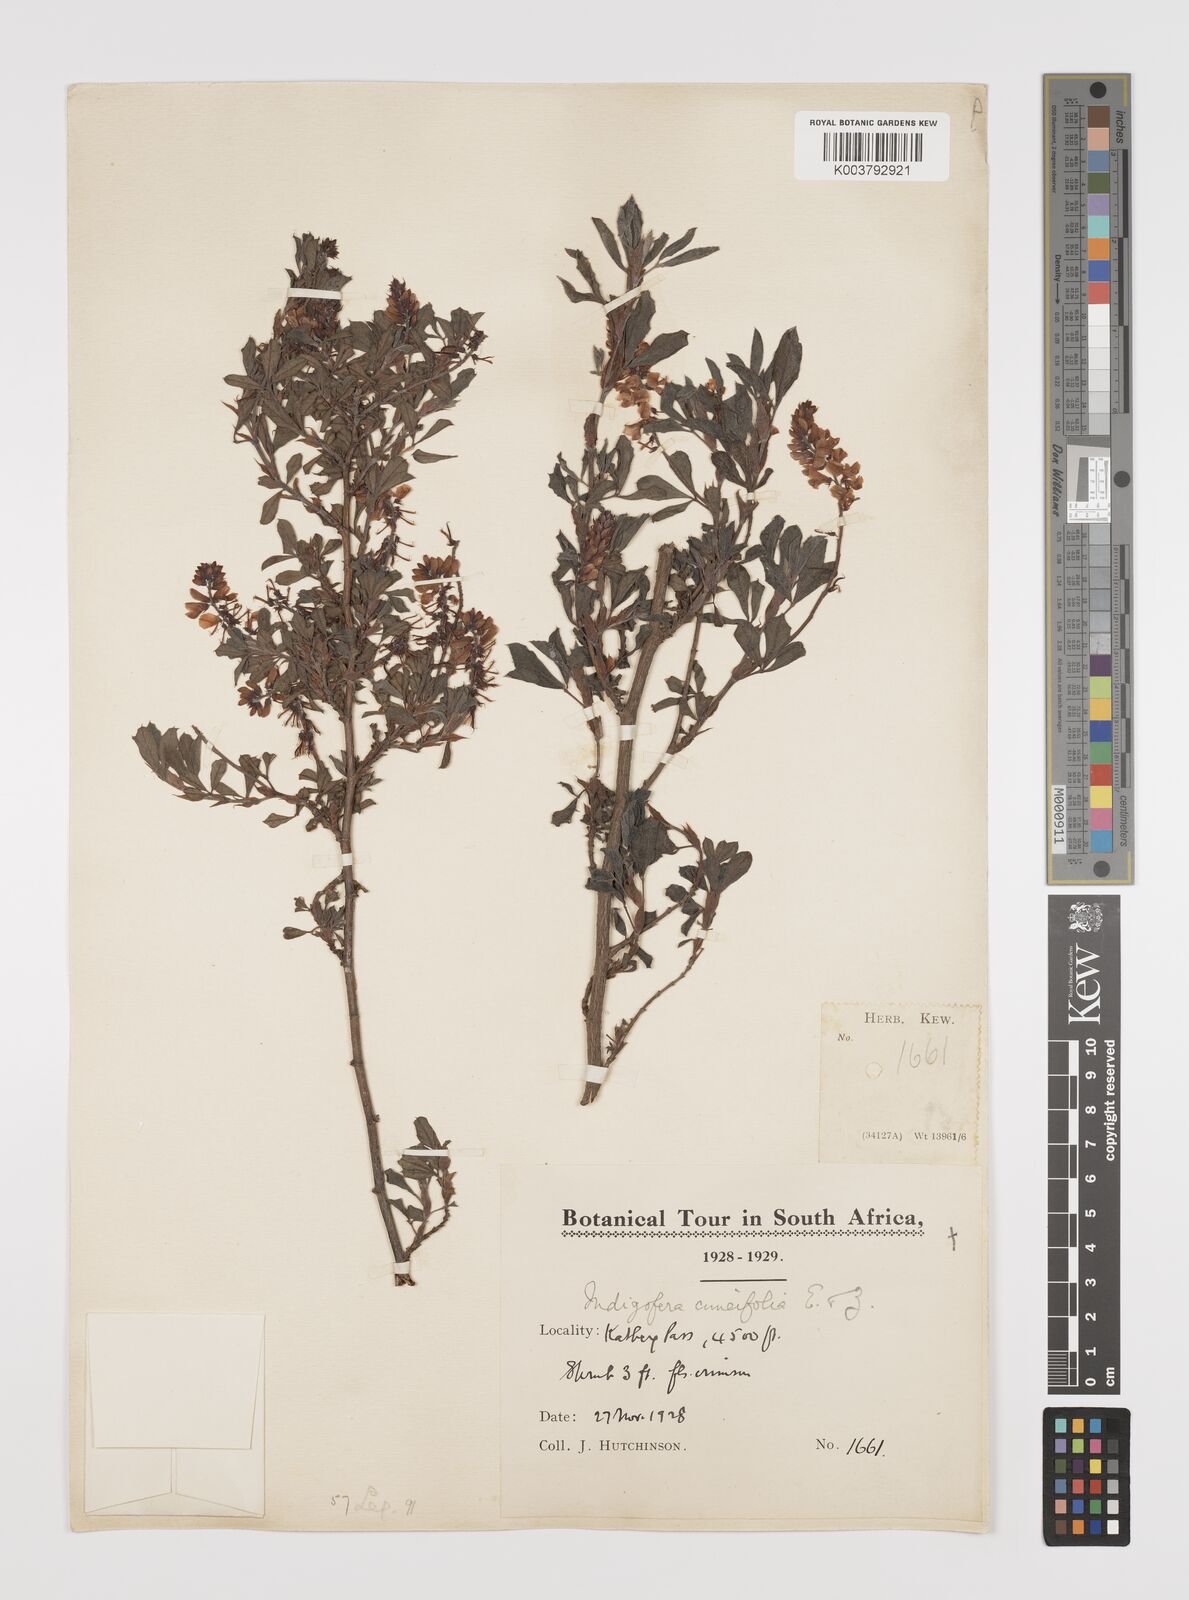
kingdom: Plantae
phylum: Tracheophyta
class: Magnoliopsida
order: Fabales
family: Fabaceae
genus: Indigofera
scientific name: Indigofera cuneifolia
